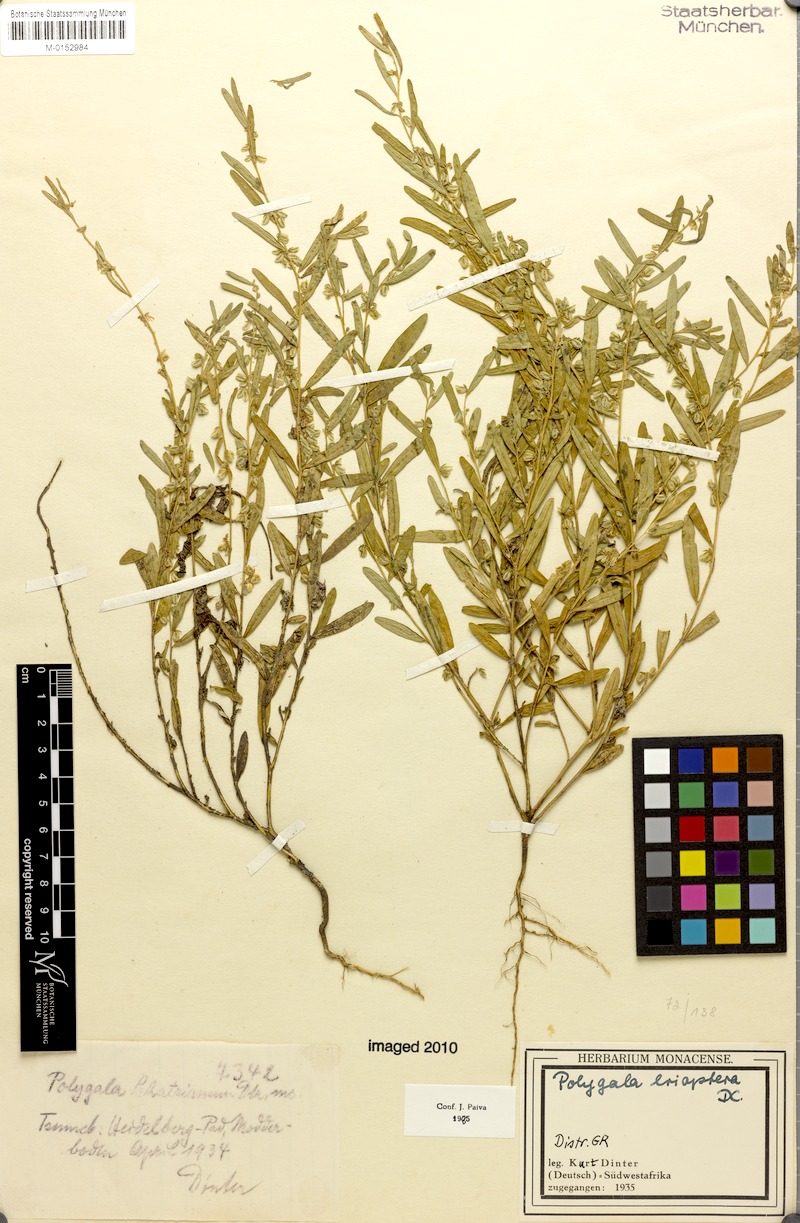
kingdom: Plantae
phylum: Tracheophyta
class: Magnoliopsida
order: Fabales
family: Polygalaceae
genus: Polygala
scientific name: Polygala erioptera
